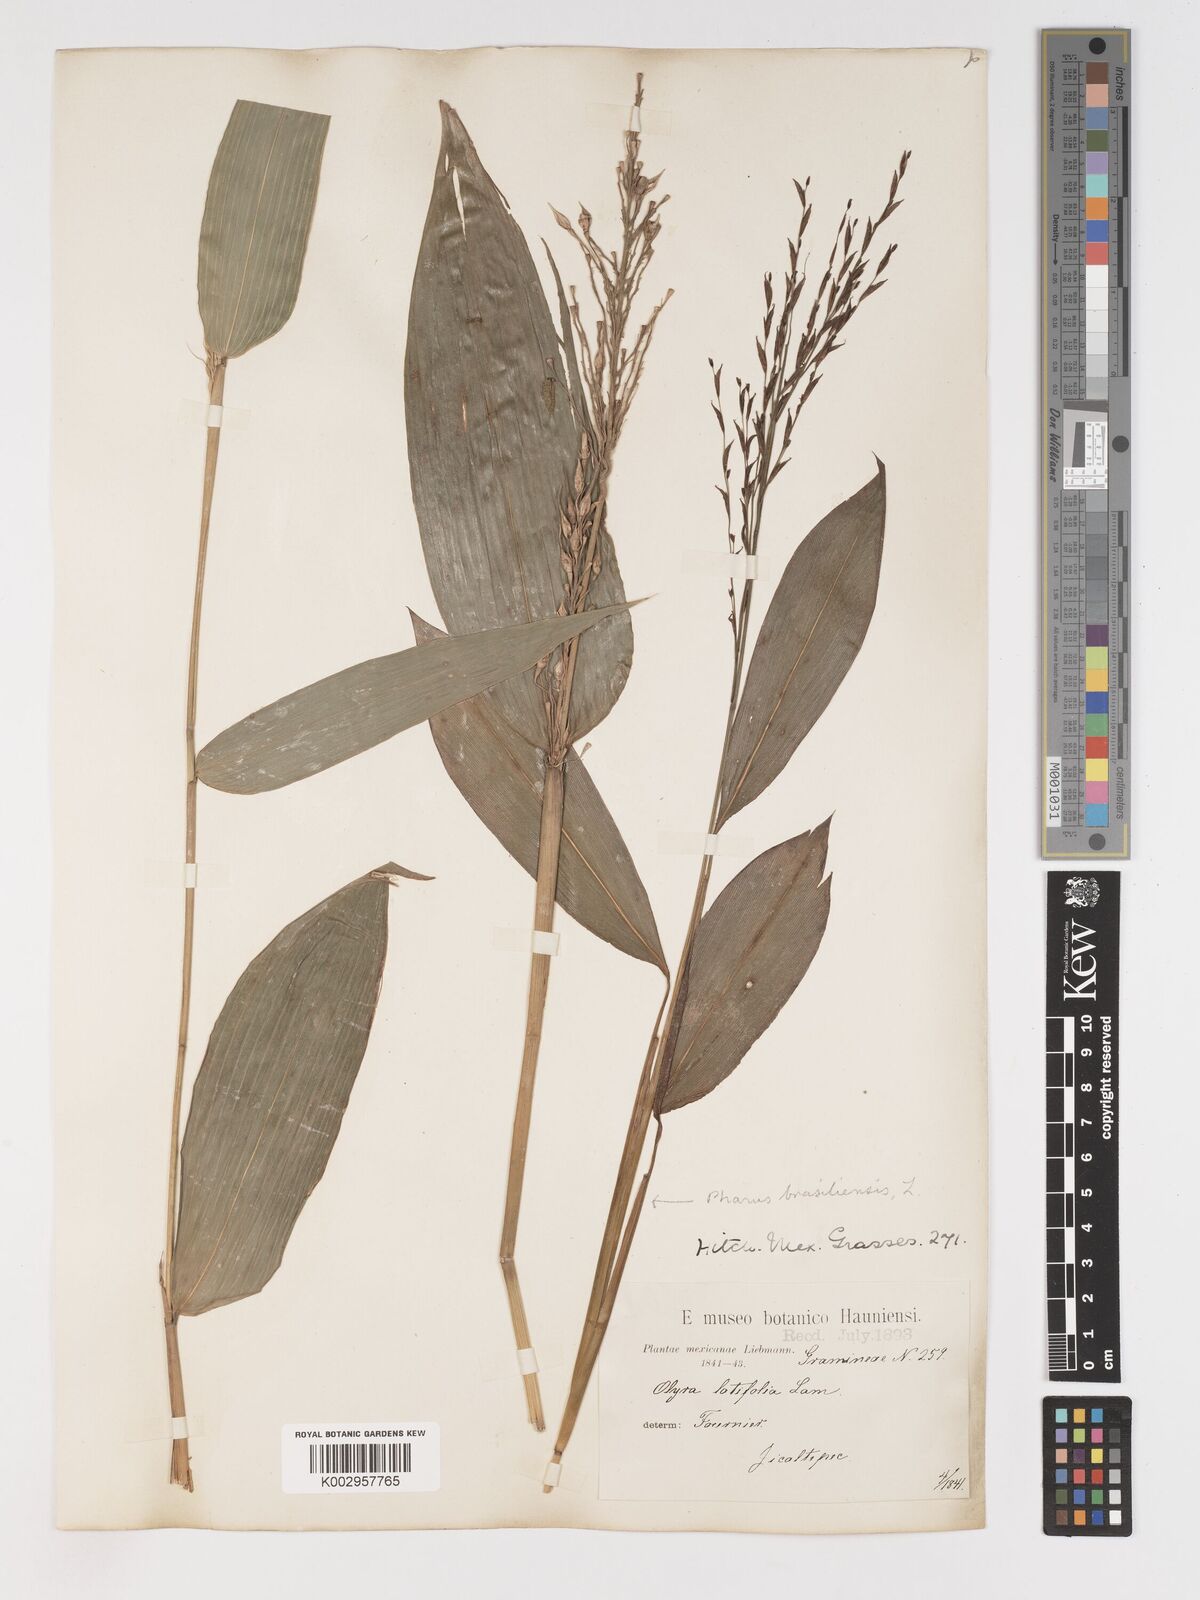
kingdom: Plantae
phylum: Tracheophyta
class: Liliopsida
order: Poales
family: Poaceae
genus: Olyra
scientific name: Olyra latifolia
